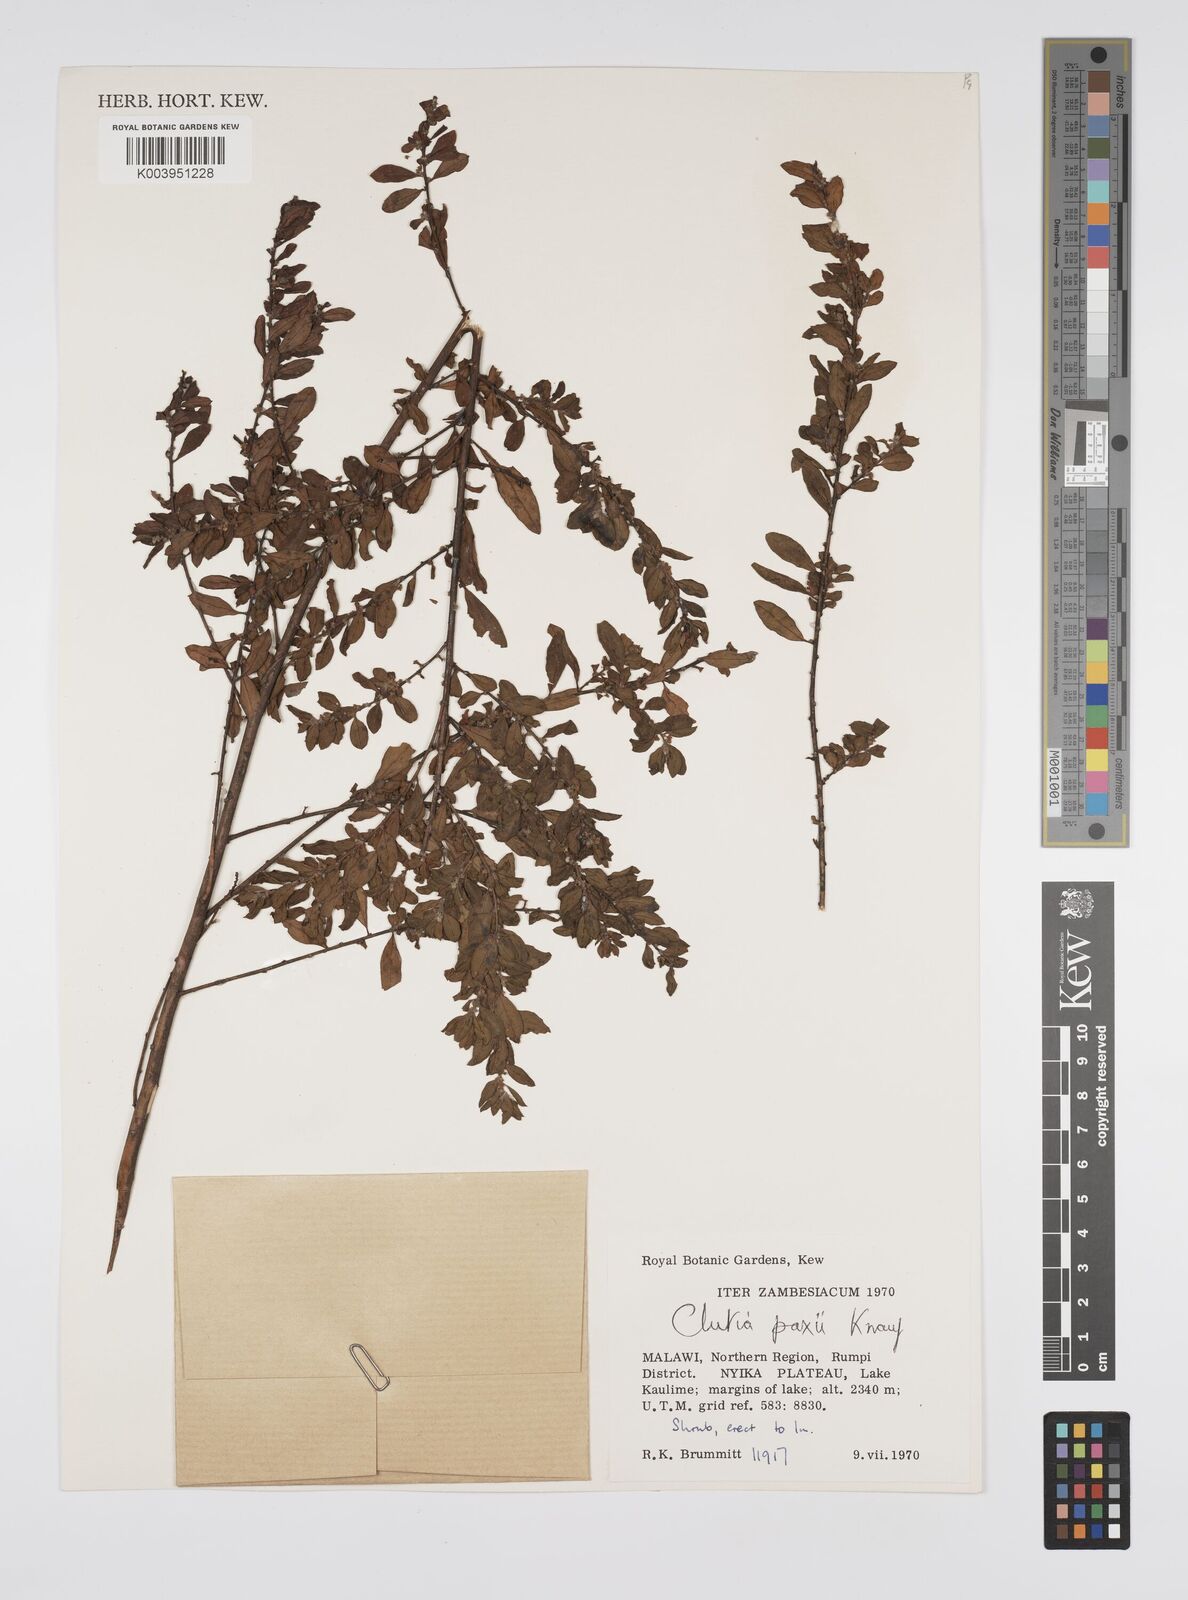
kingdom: Plantae
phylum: Tracheophyta
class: Magnoliopsida
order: Malpighiales
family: Peraceae
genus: Clutia
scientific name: Clutia paxii
